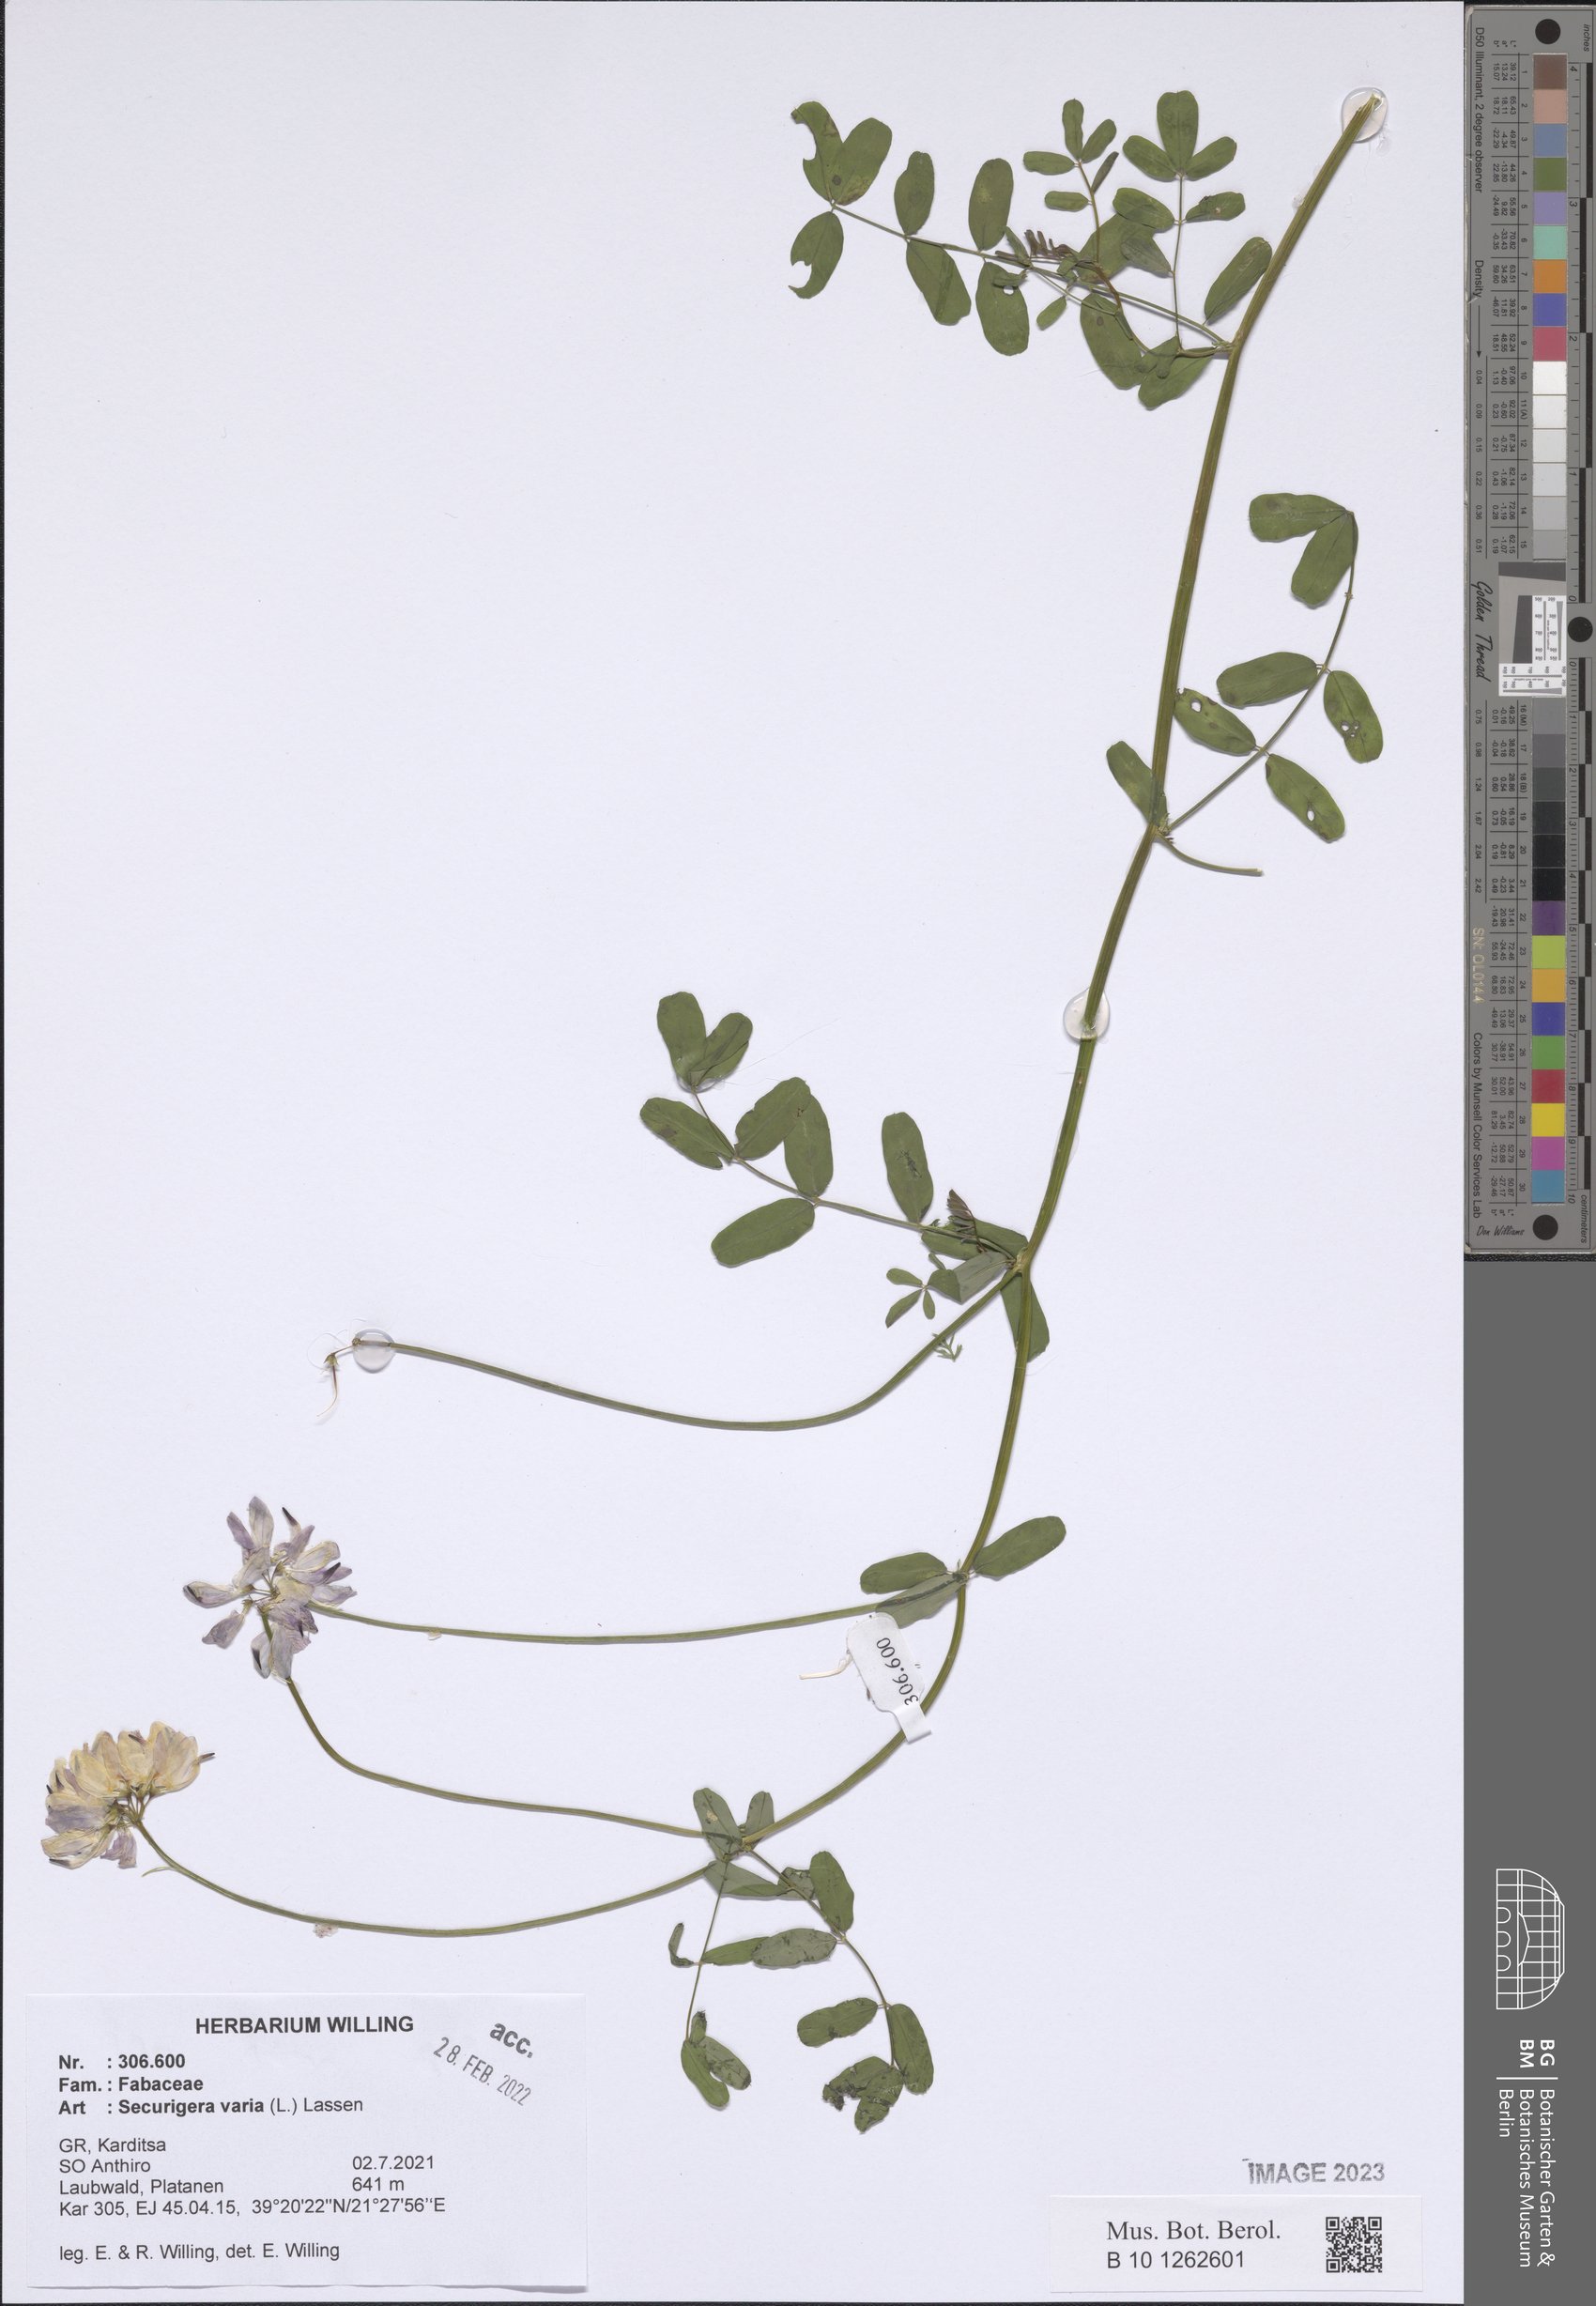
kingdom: Plantae
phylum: Tracheophyta
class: Magnoliopsida
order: Fabales
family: Fabaceae
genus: Coronilla
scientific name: Coronilla varia
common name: Crownvetch
